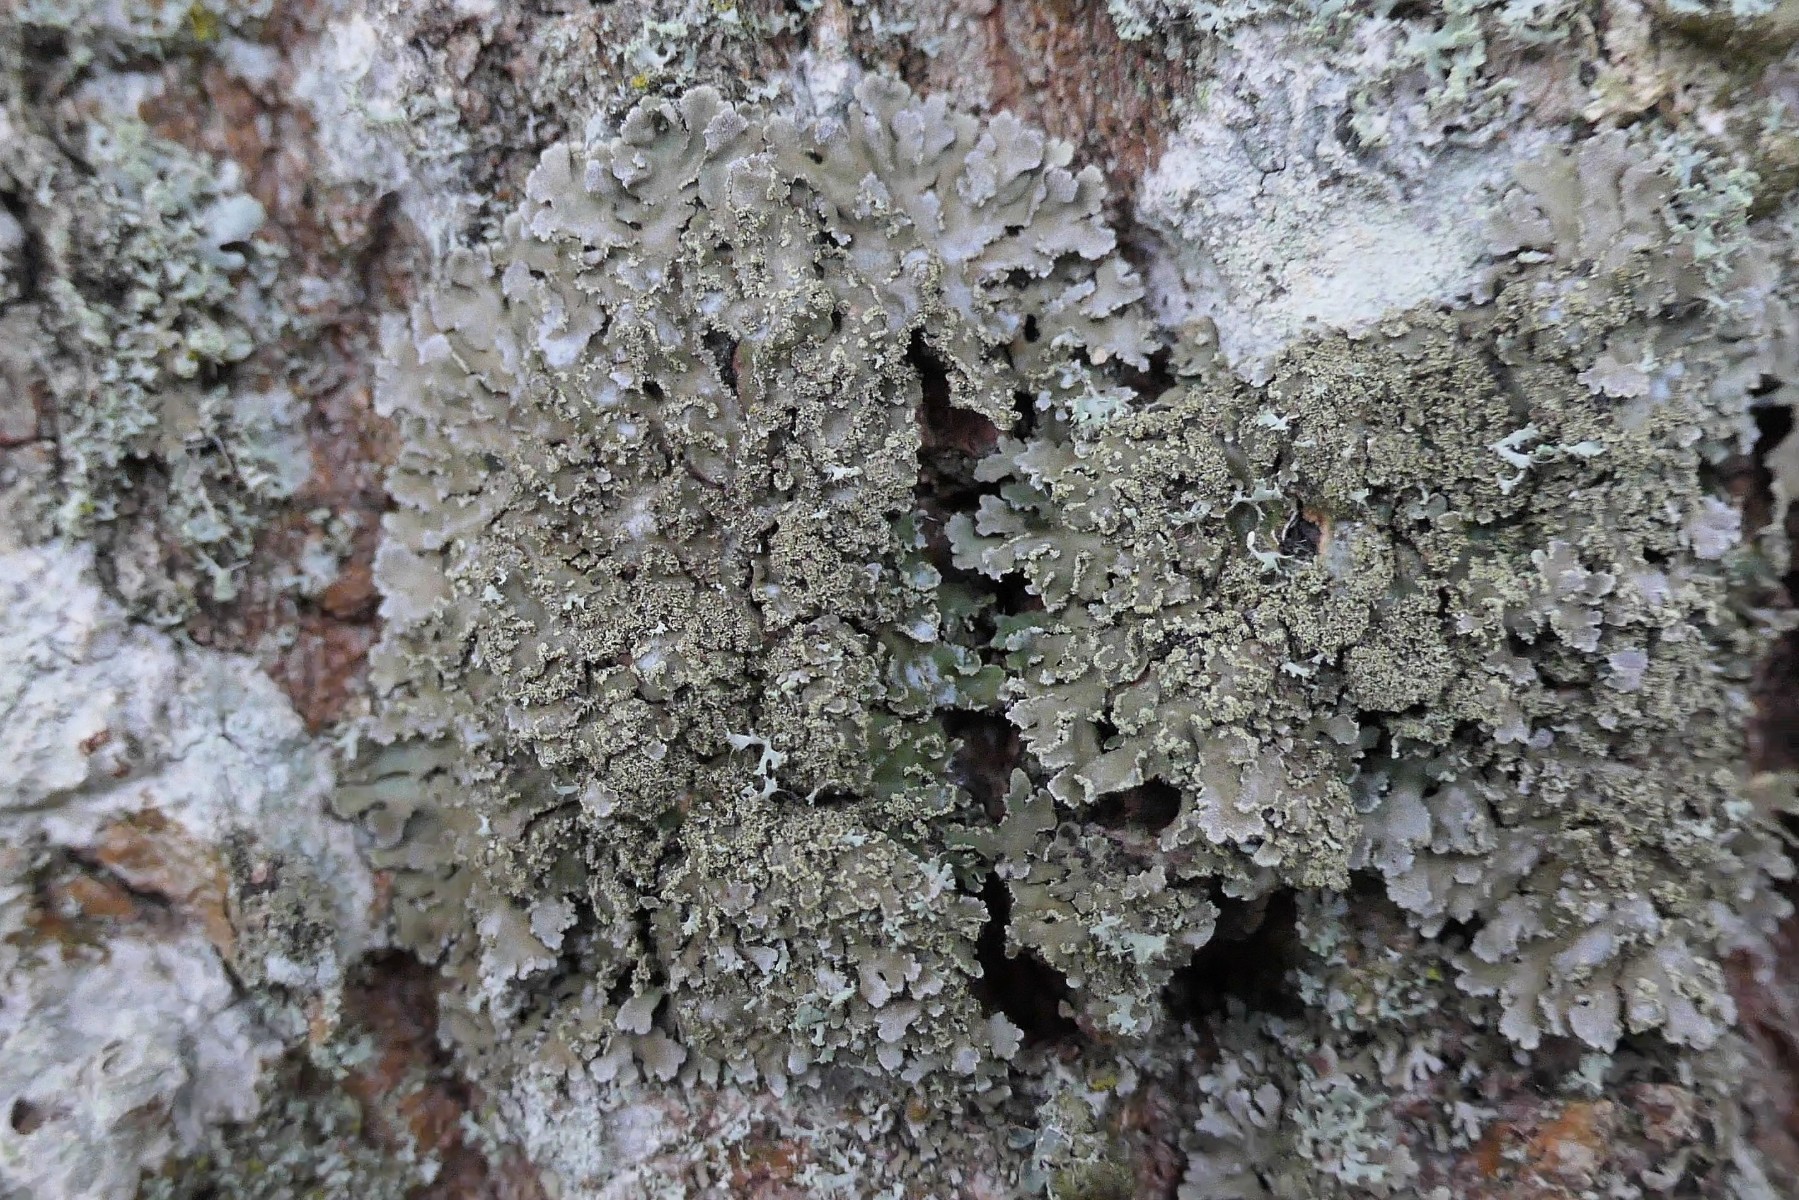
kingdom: Fungi
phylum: Ascomycota
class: Lecanoromycetes
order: Caliciales
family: Physciaceae
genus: Physconia
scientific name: Physconia perisidiosa
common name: liden dugrosetlav
